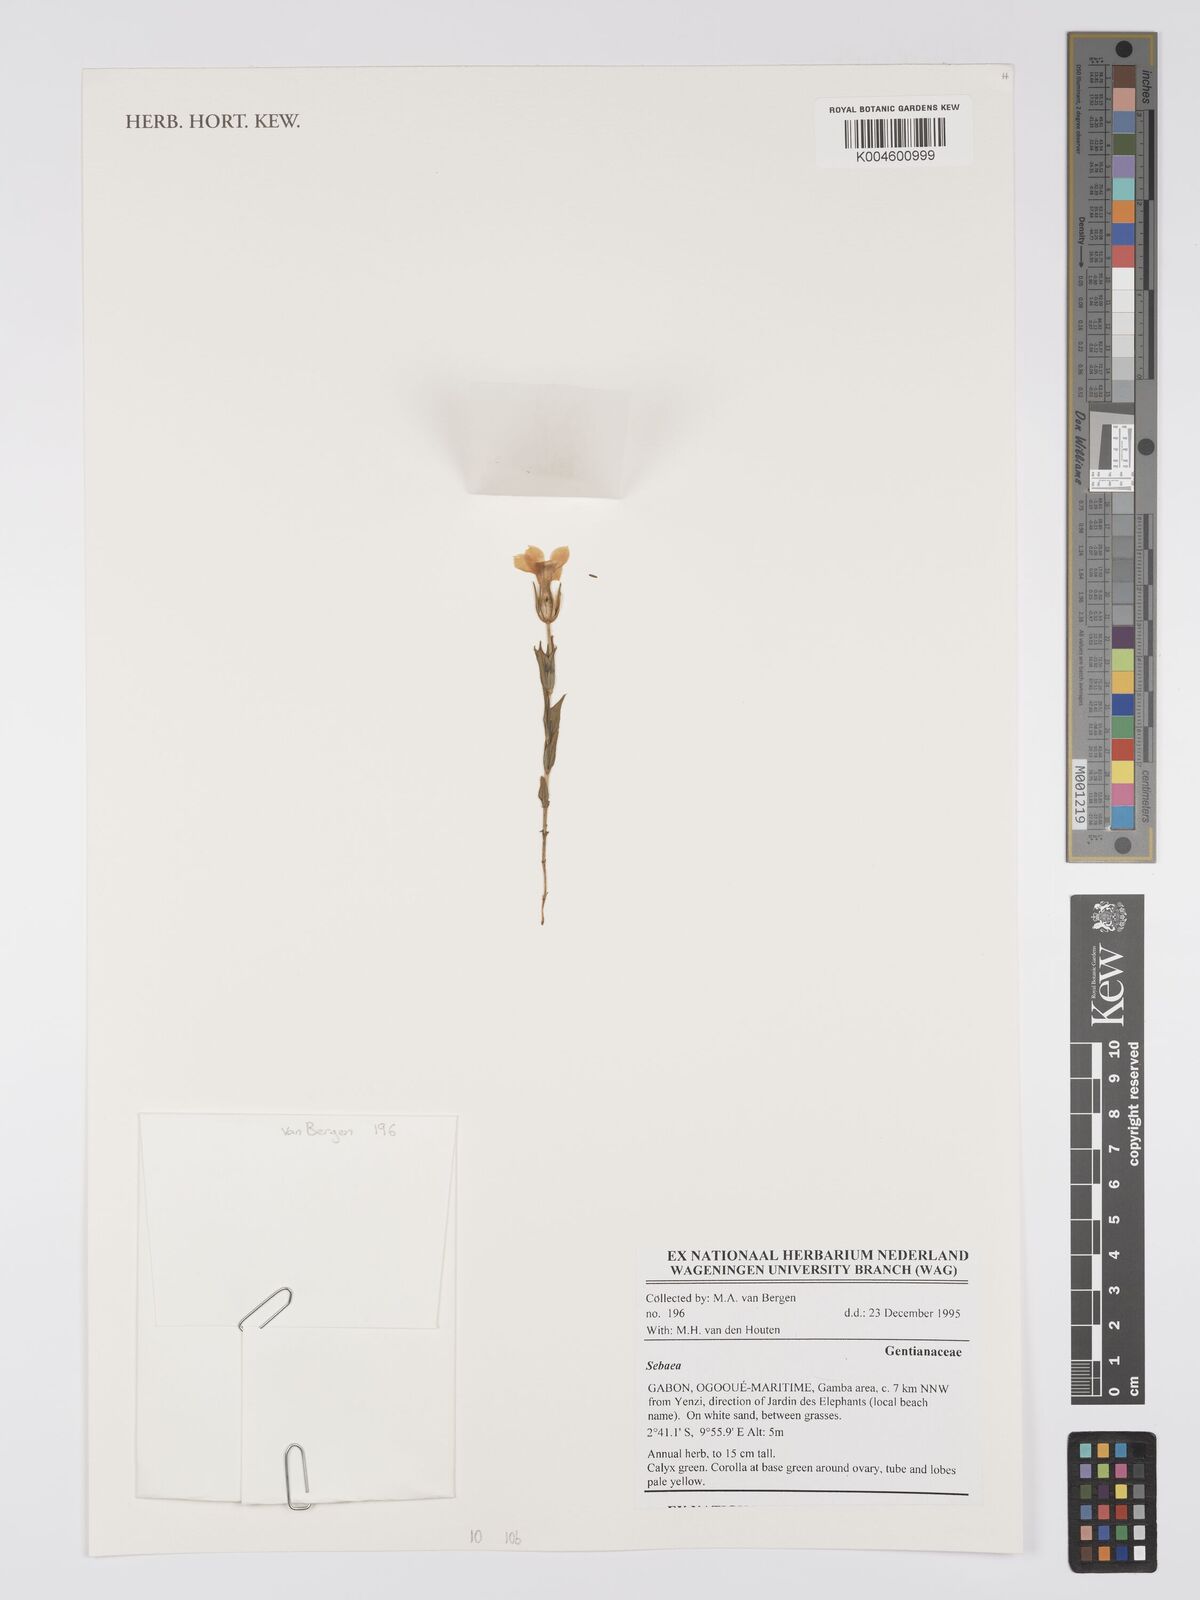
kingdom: Plantae
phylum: Tracheophyta
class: Magnoliopsida
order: Gentianales
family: Gentianaceae
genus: Sebaea
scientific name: Sebaea
